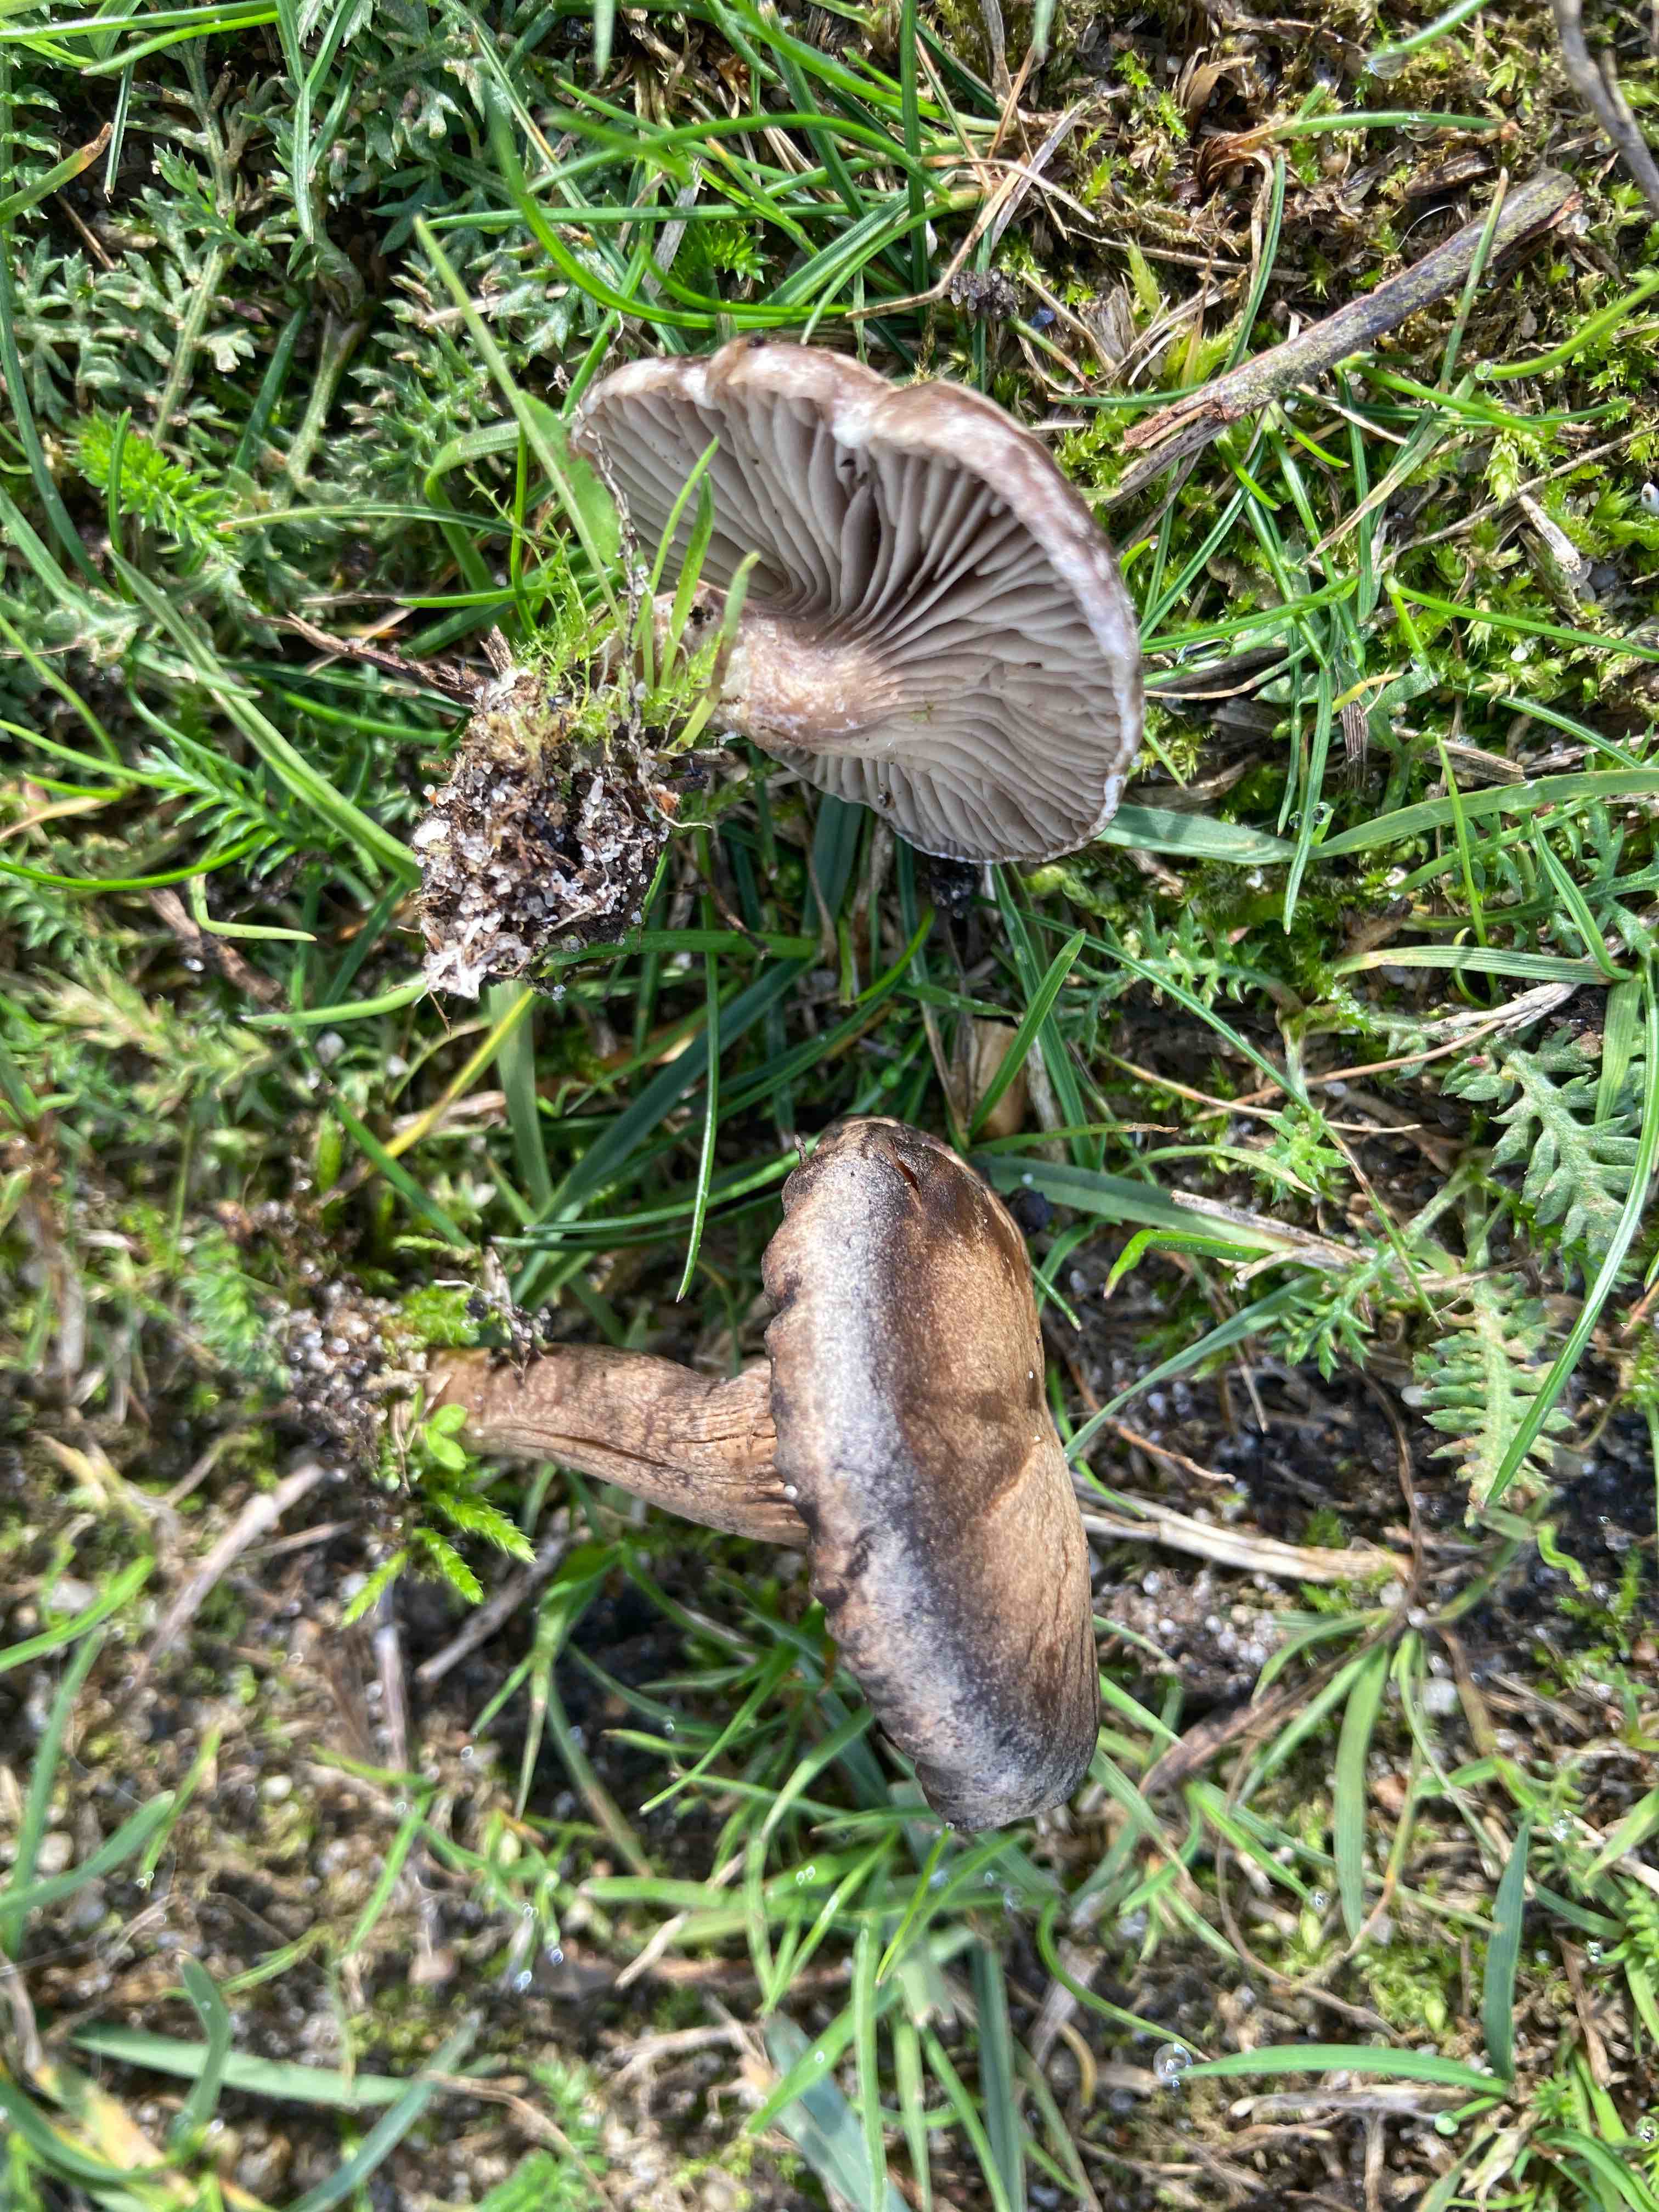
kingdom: Fungi
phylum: Basidiomycota
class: Agaricomycetes
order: Agaricales
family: Tricholomataceae
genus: Lulesia
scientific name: Lulesia
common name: sortnende troldhat
